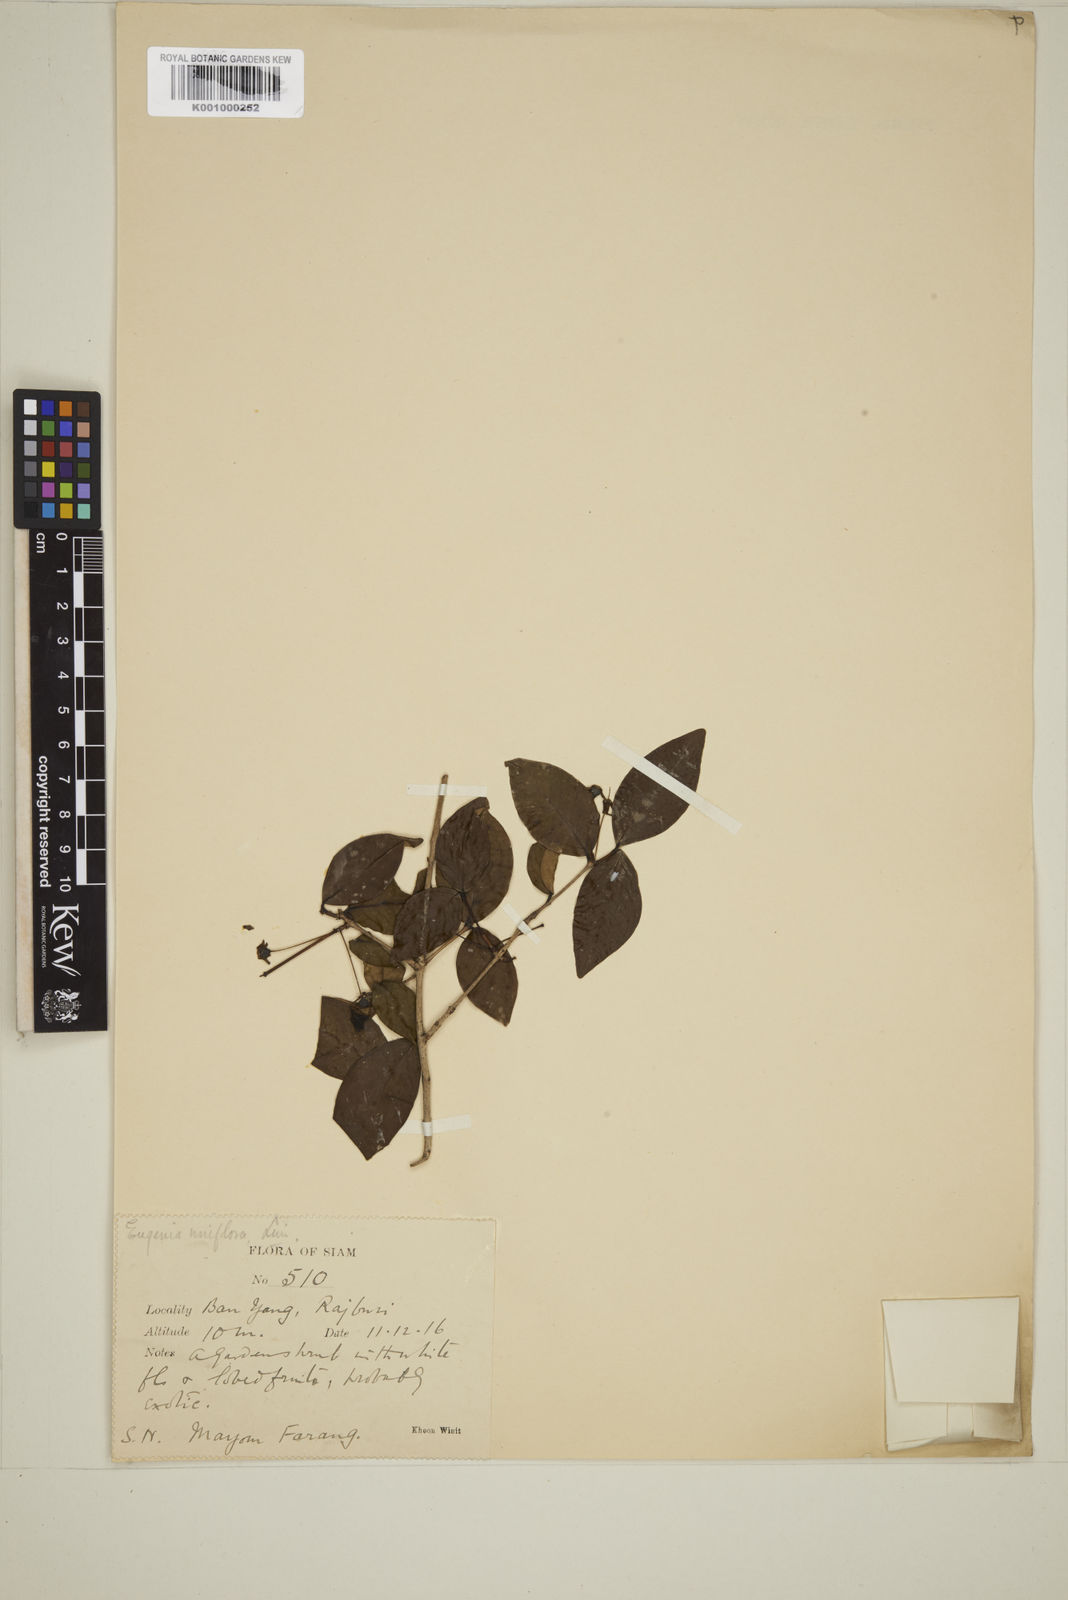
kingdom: Plantae
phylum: Tracheophyta
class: Magnoliopsida
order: Myrtales
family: Myrtaceae
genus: Eugenia
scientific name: Eugenia uniflora
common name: Surinam cherry
